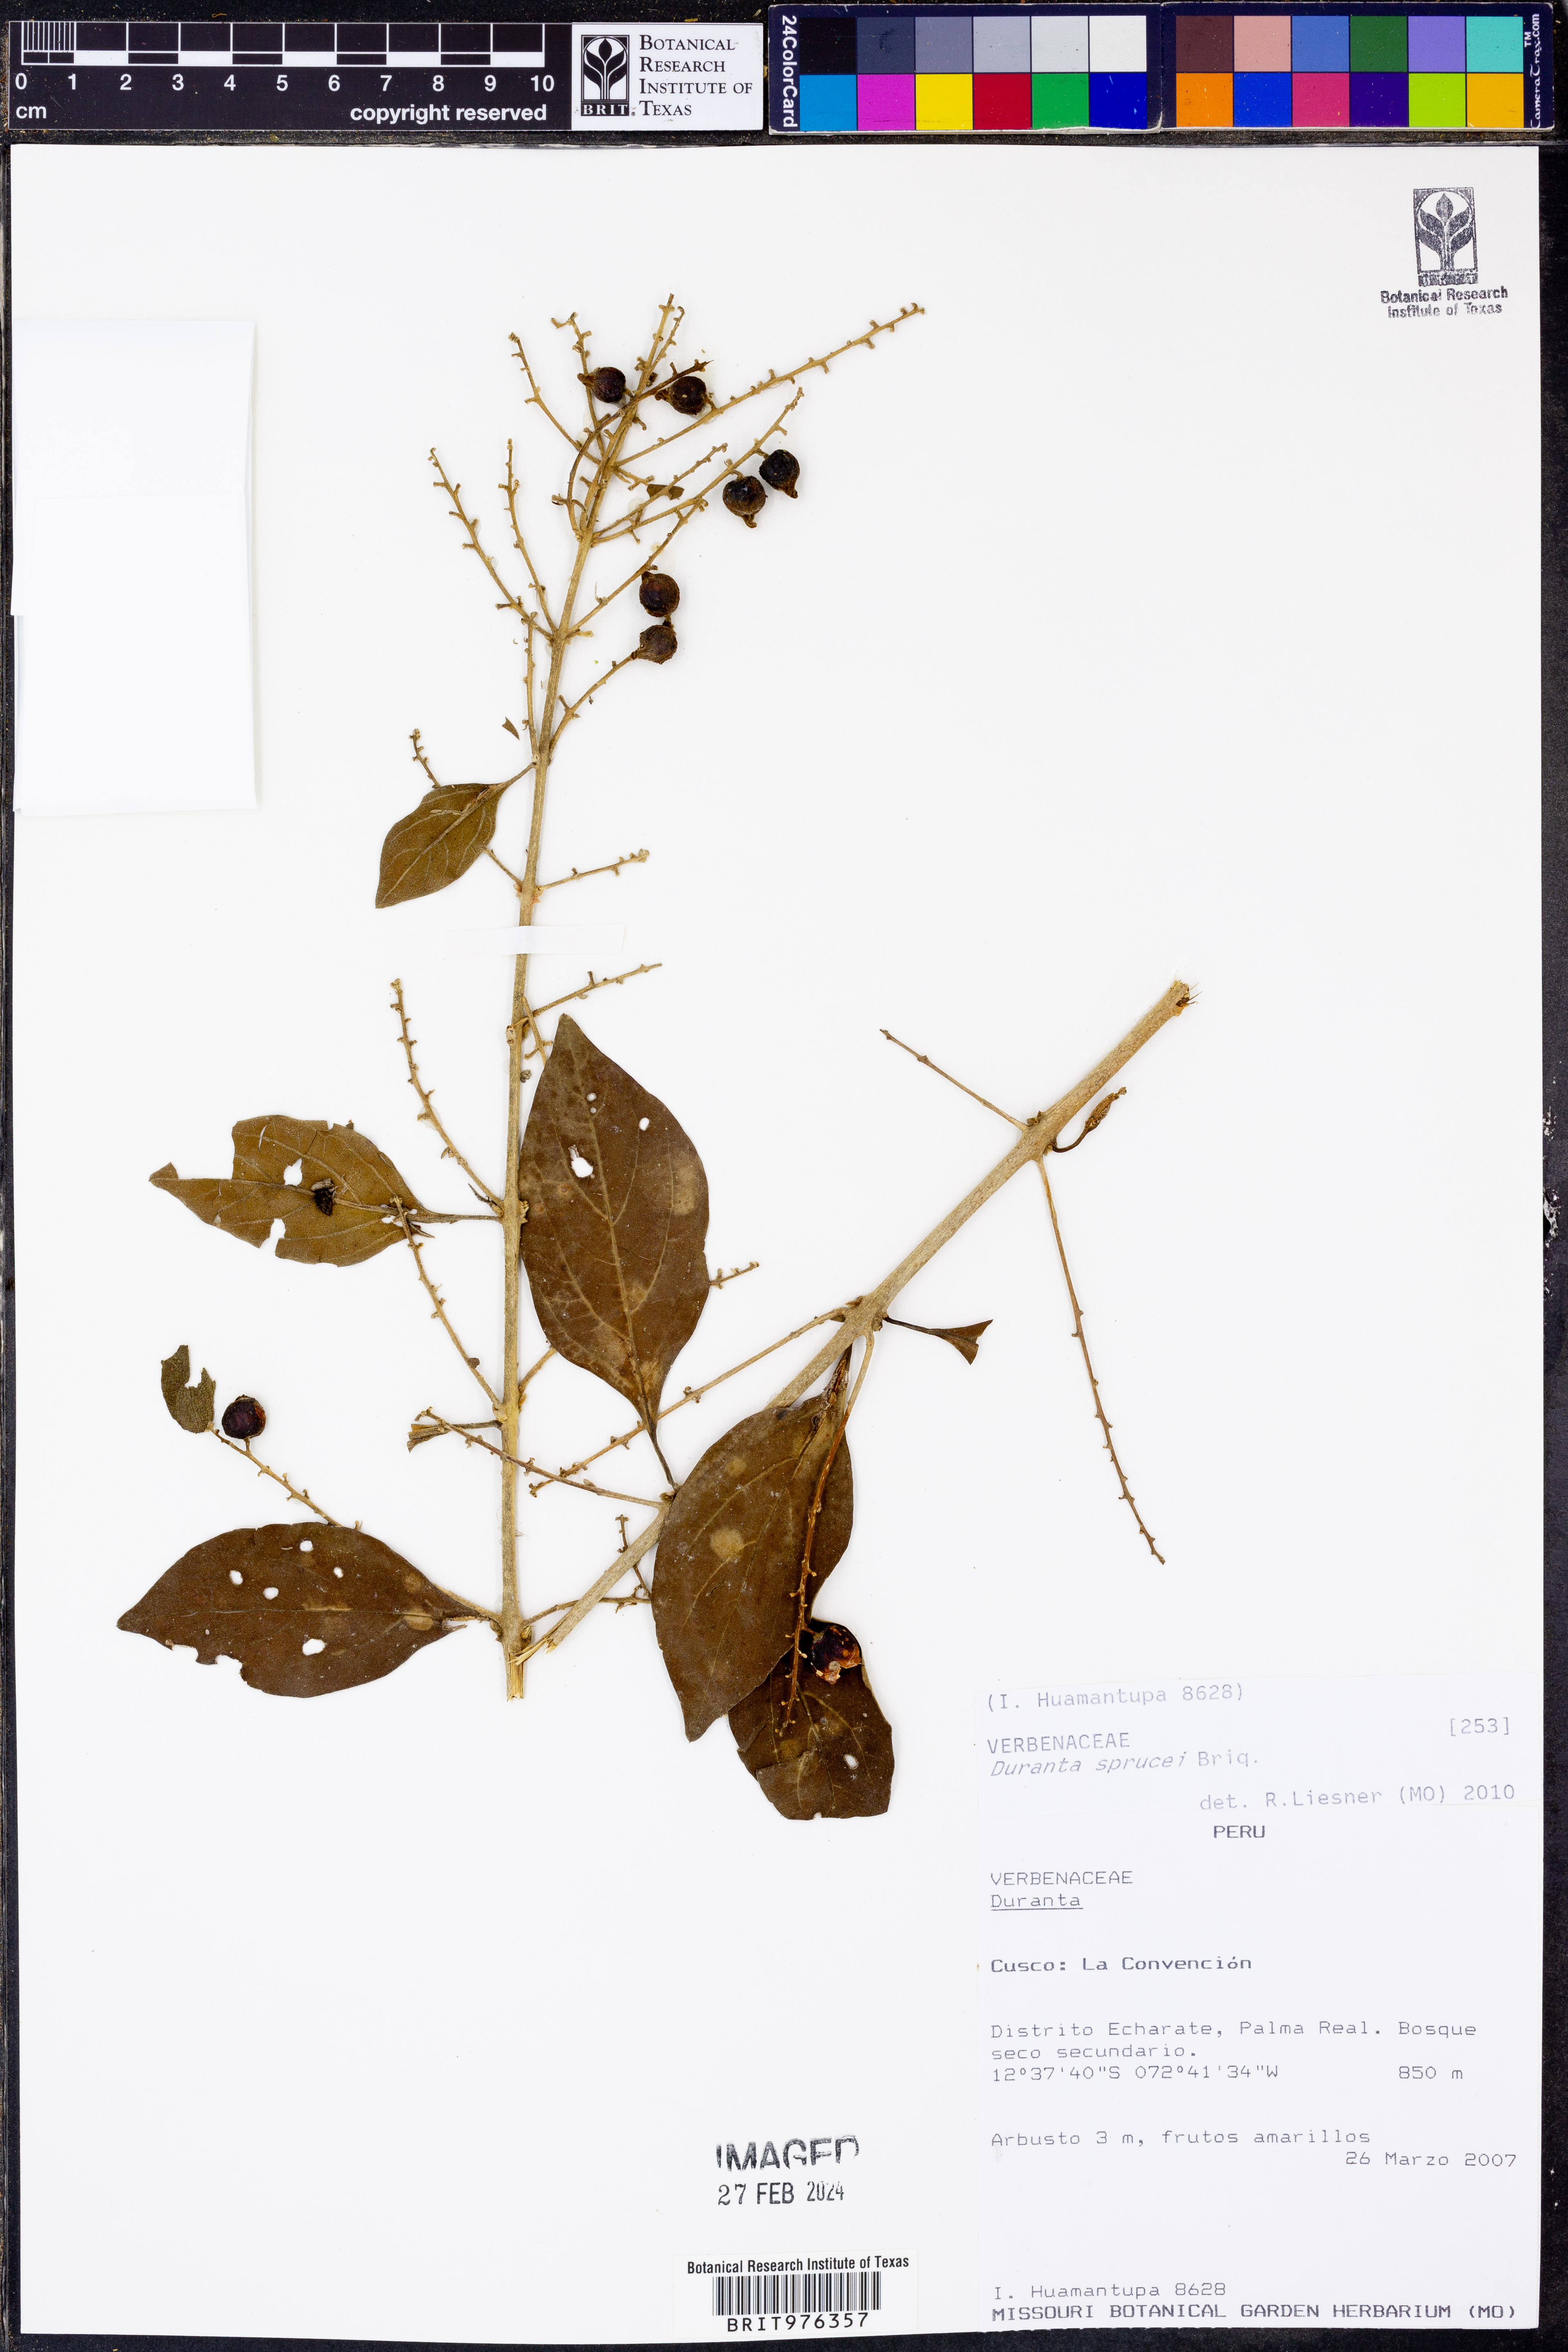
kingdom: Plantae
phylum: Tracheophyta
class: Magnoliopsida
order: Lamiales
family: Verbenaceae
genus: Duranta
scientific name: Duranta
